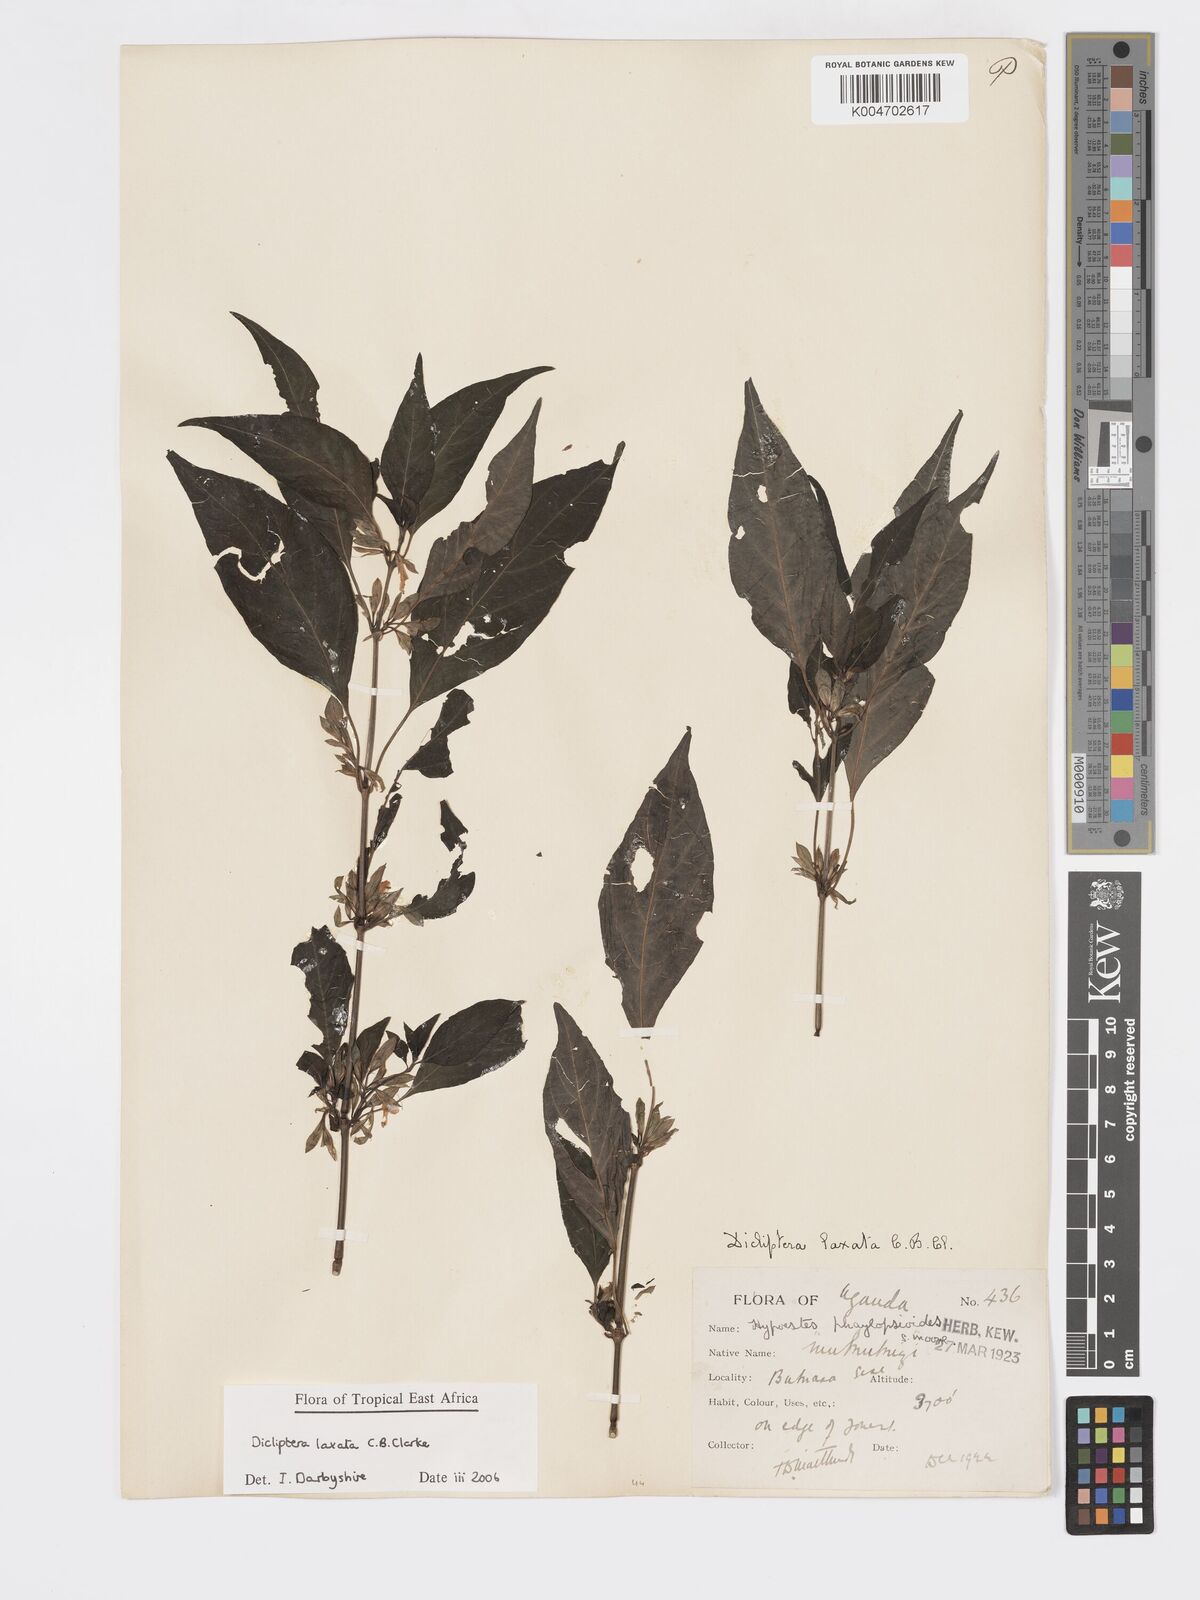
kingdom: Plantae
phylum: Tracheophyta
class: Magnoliopsida
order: Lamiales
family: Acanthaceae
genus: Dicliptera
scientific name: Dicliptera laxata
